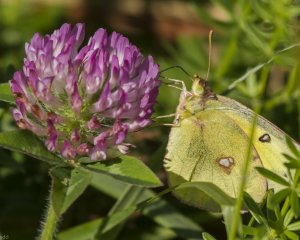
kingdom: Animalia
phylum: Arthropoda
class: Insecta
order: Lepidoptera
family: Pieridae
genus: Colias
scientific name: Colias eurytheme
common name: Orange Sulphur
